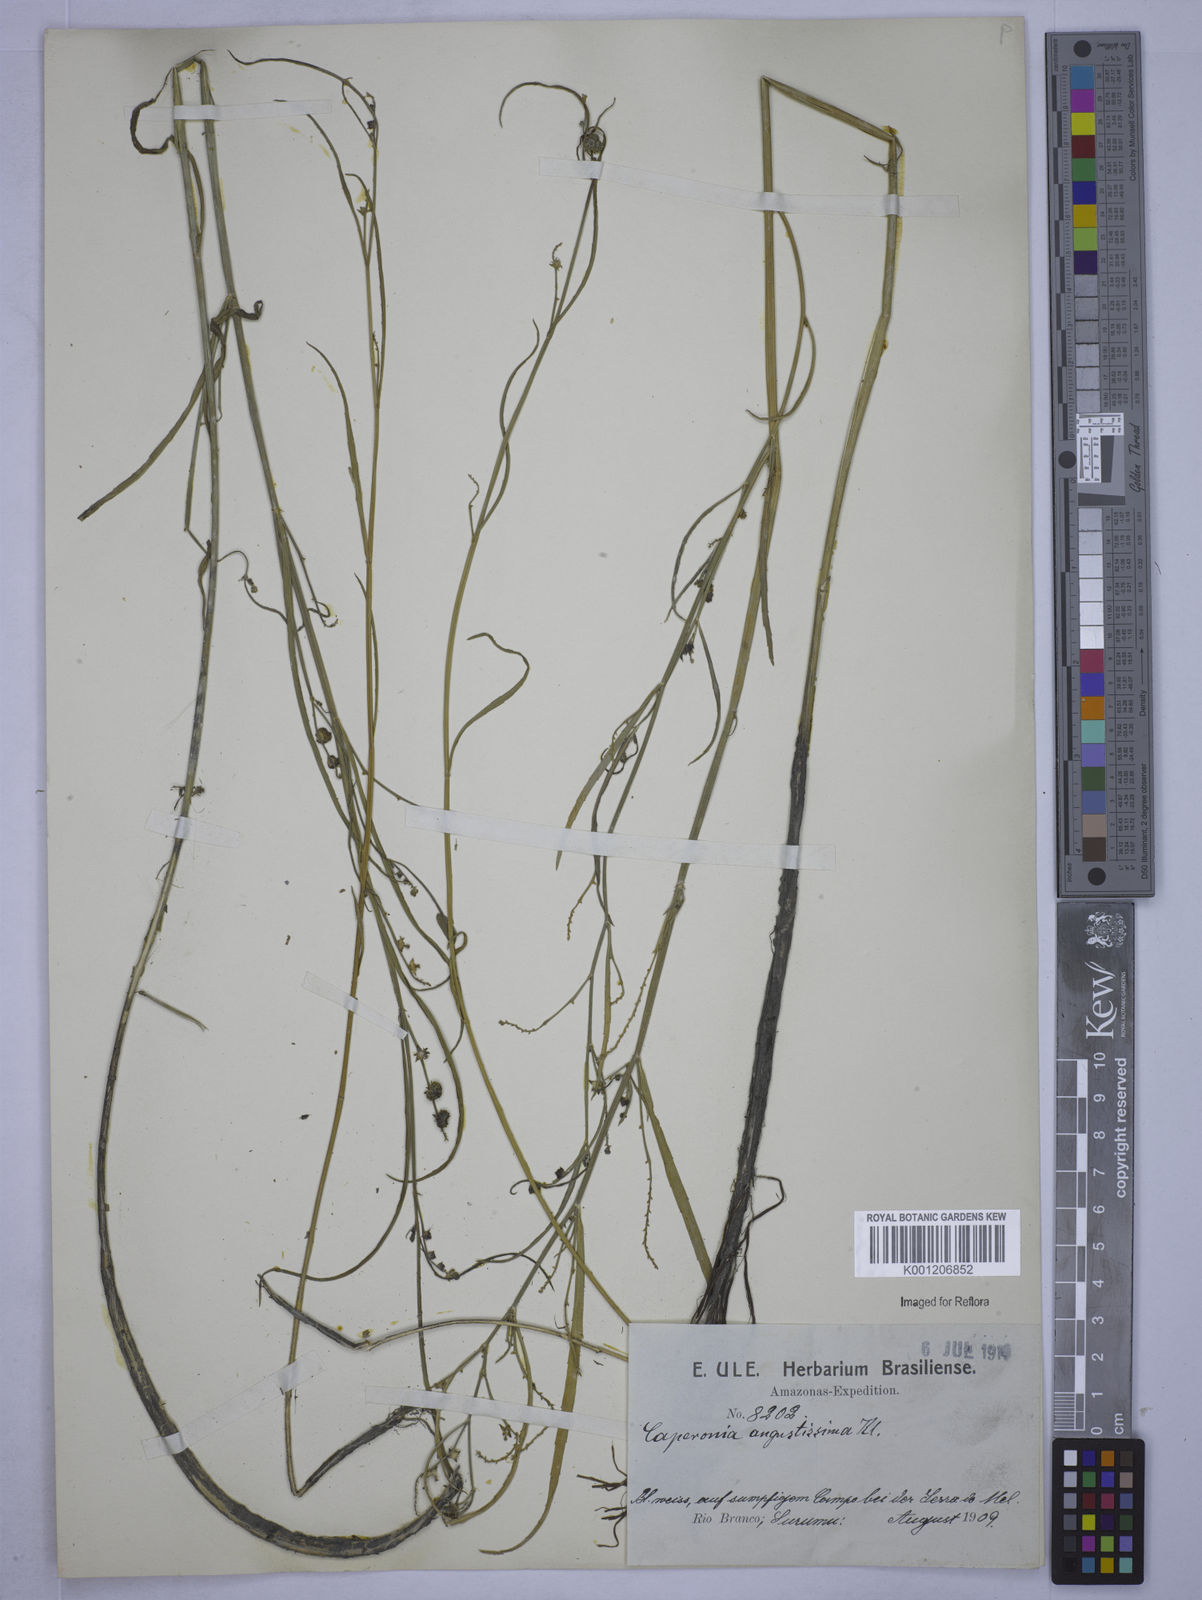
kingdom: Plantae
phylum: Tracheophyta
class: Magnoliopsida
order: Malpighiales
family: Euphorbiaceae
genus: Caperonia
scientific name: Caperonia angustissima
